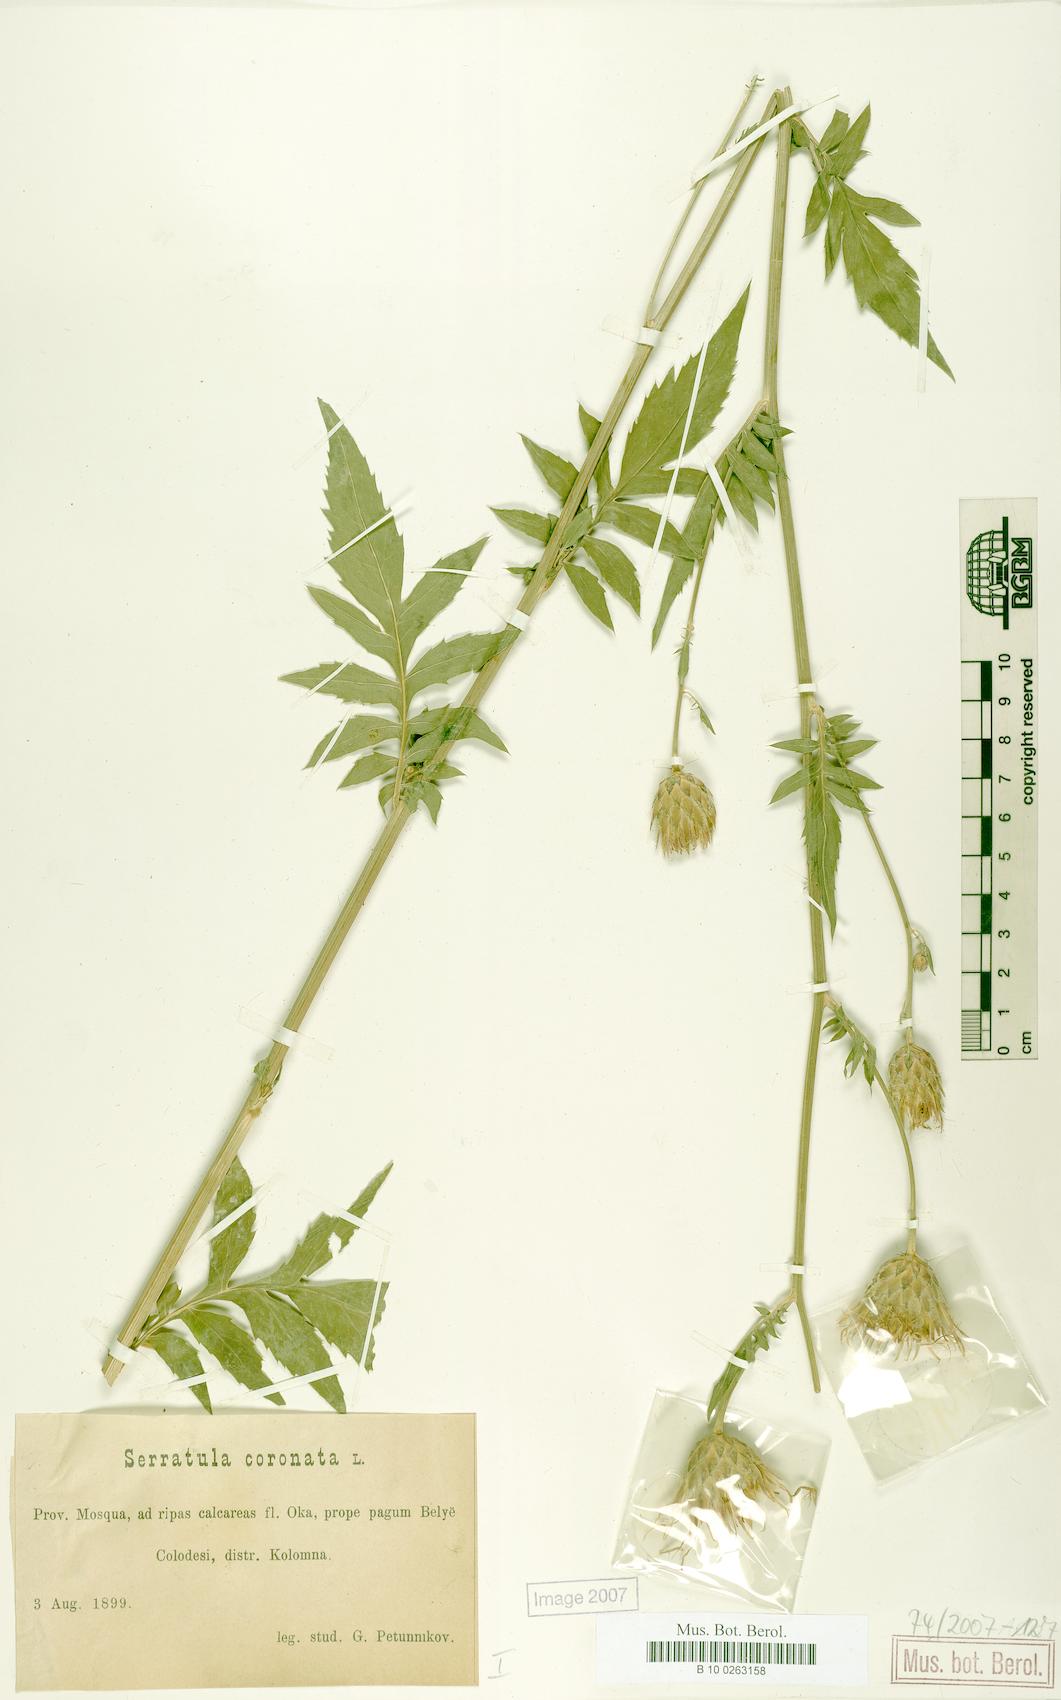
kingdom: Plantae
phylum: Tracheophyta
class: Magnoliopsida
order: Asterales
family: Asteraceae
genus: Serratula
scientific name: Serratula coronata
